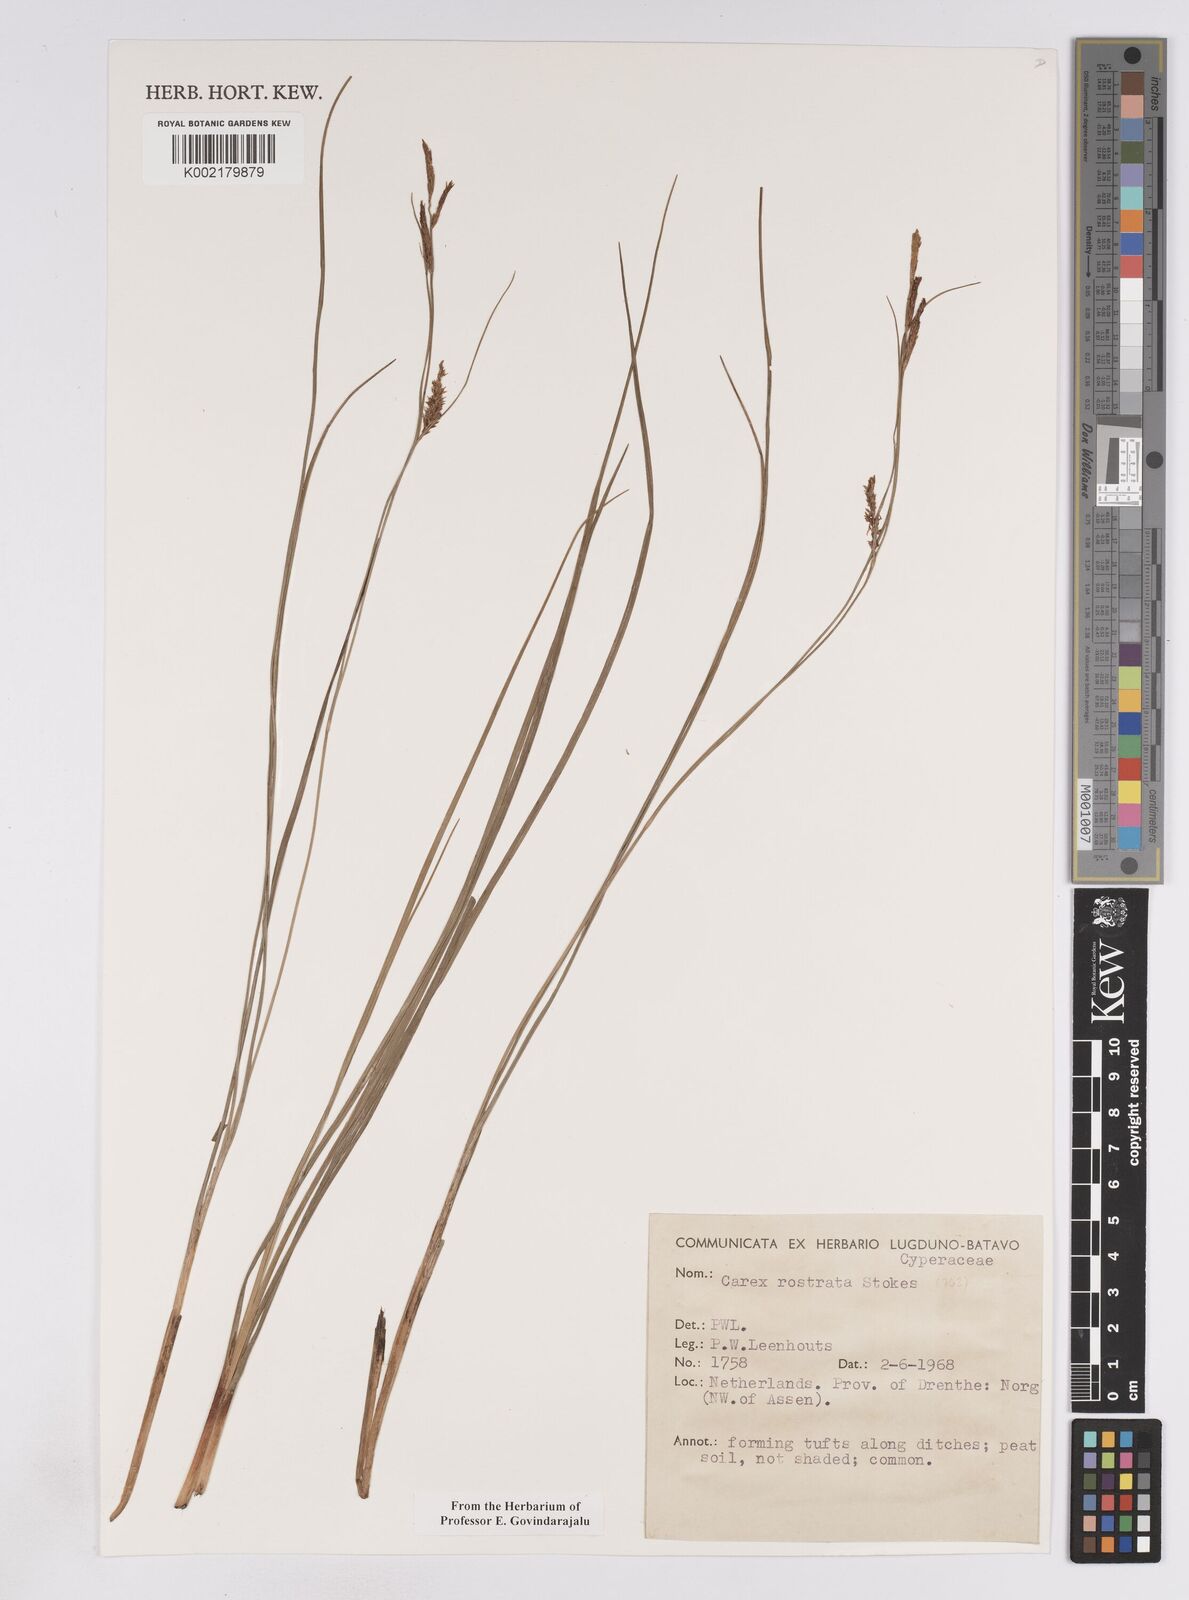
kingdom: Plantae
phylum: Tracheophyta
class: Liliopsida
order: Poales
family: Cyperaceae
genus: Carex
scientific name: Carex rostrata
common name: Bottle sedge
